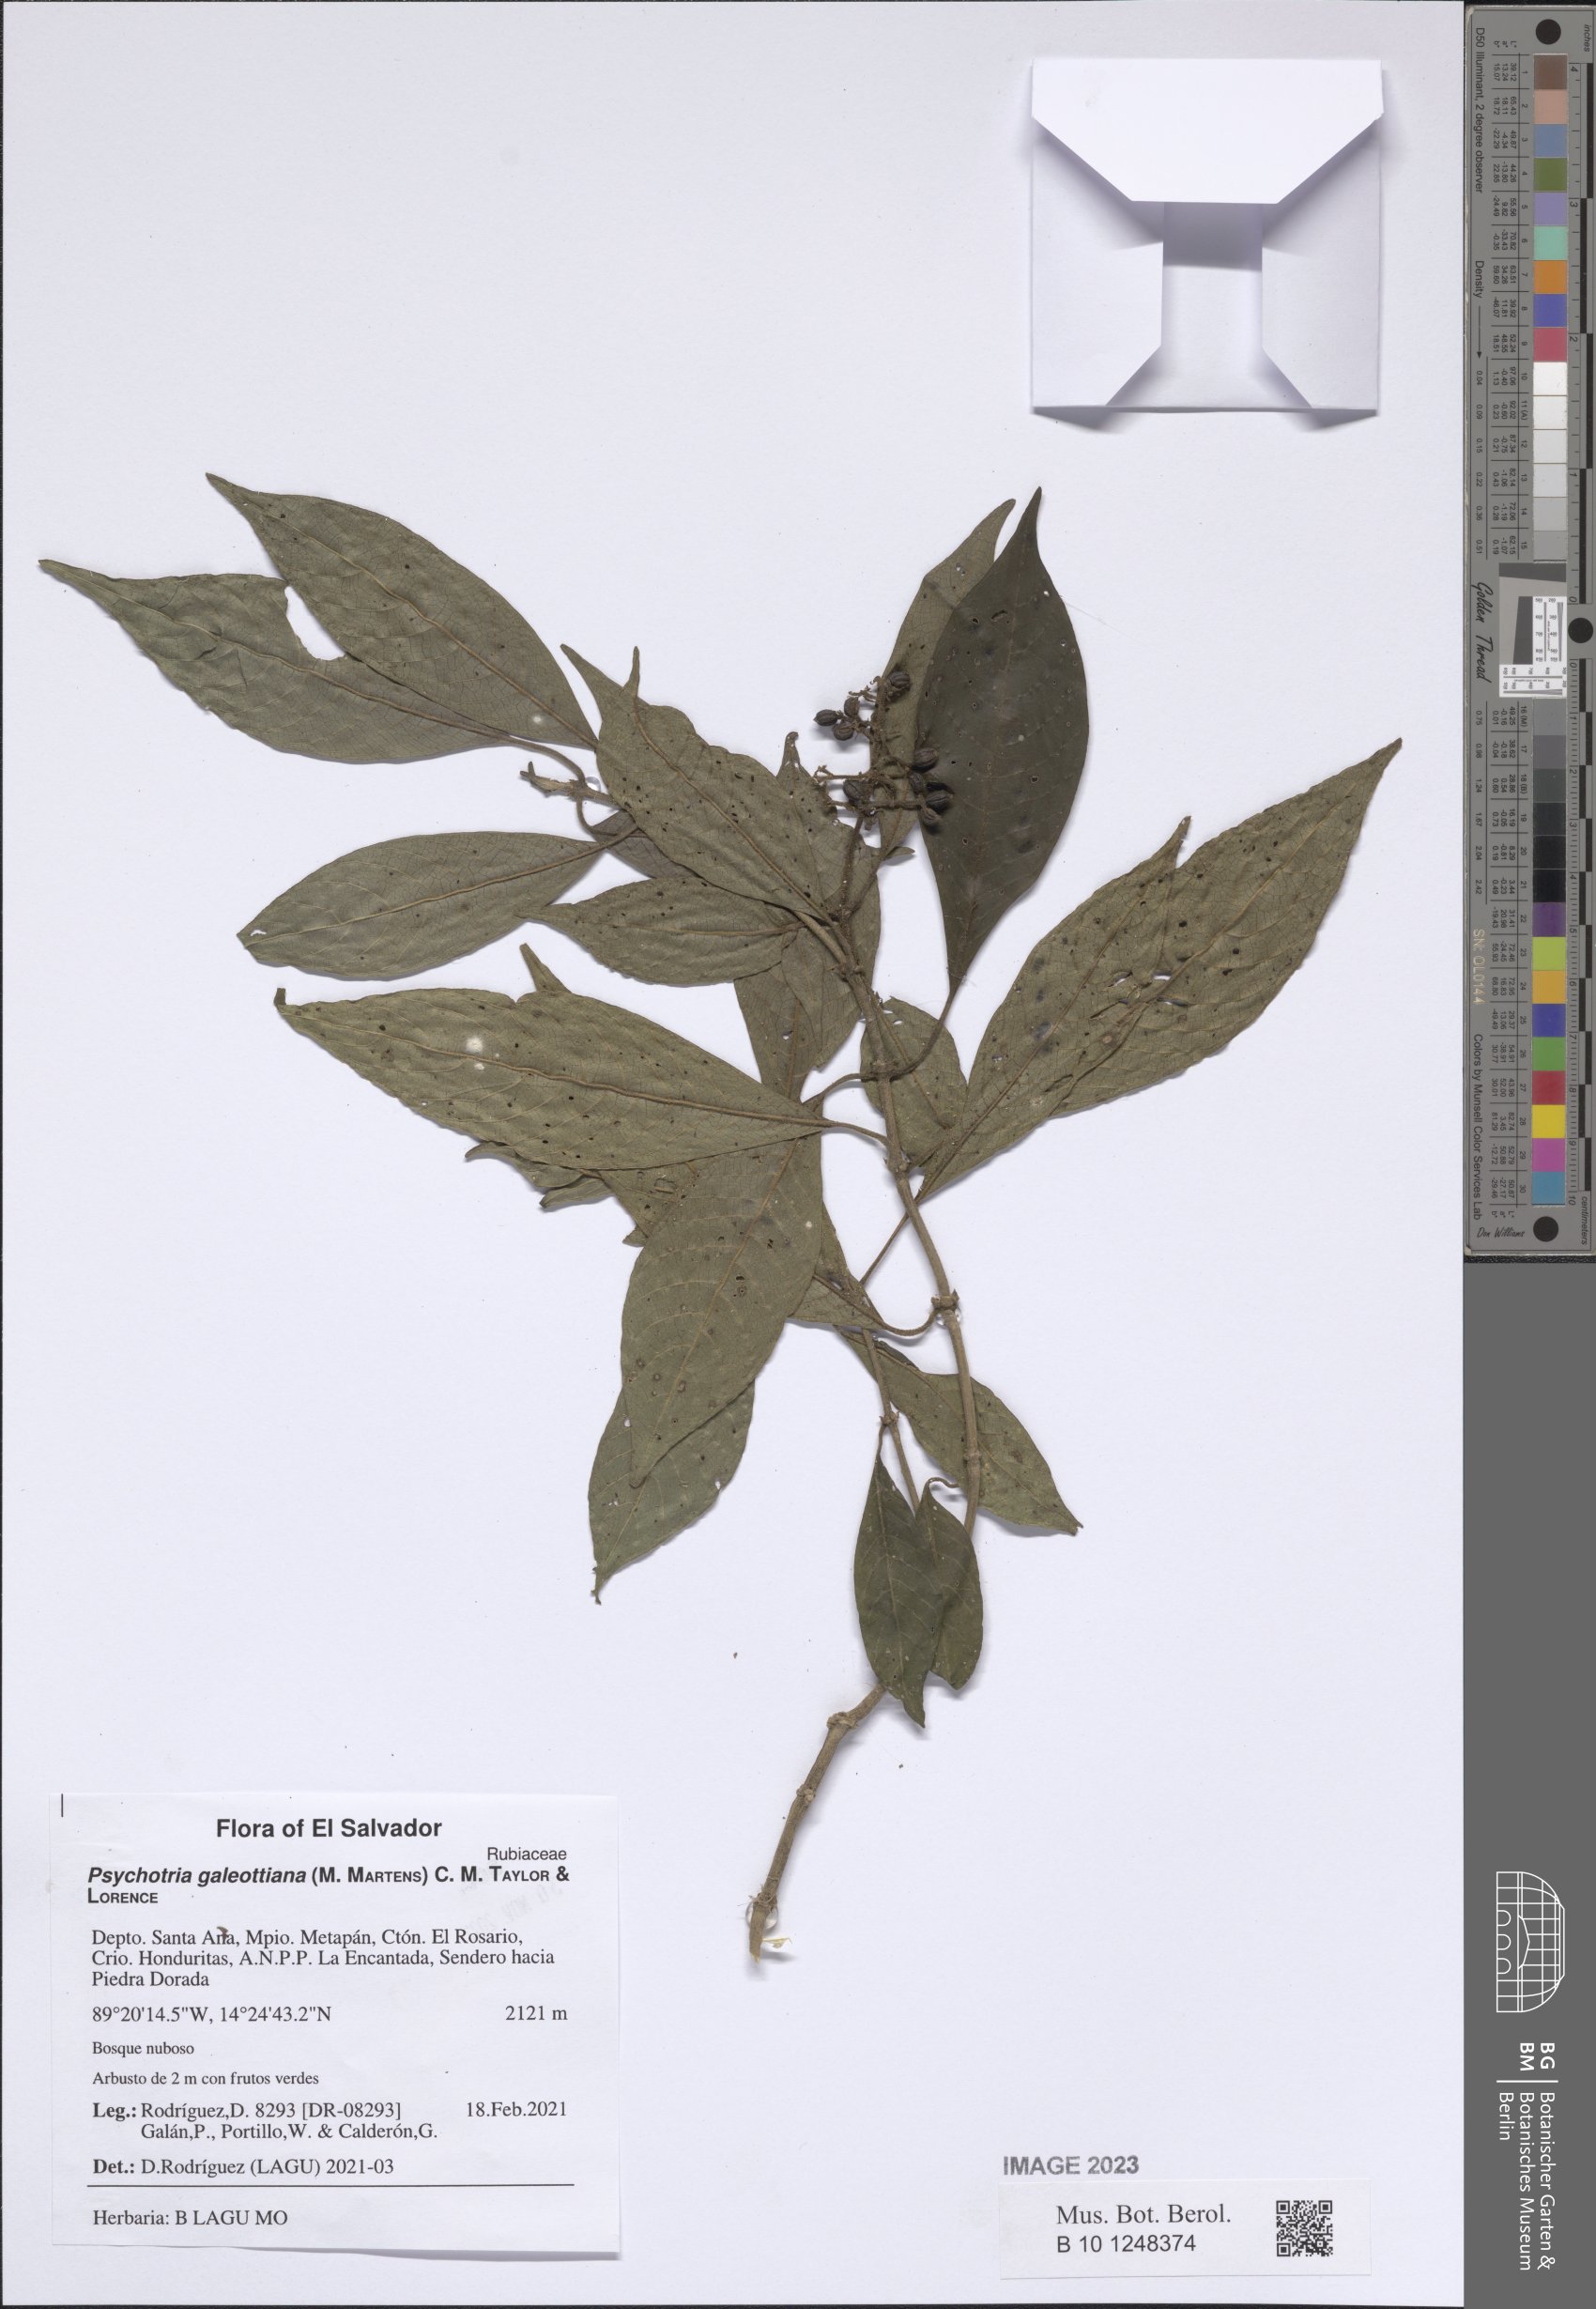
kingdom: Plantae
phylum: Tracheophyta
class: Magnoliopsida
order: Gentianales
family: Rubiaceae
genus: Palicourea
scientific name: Palicourea galeottiana
